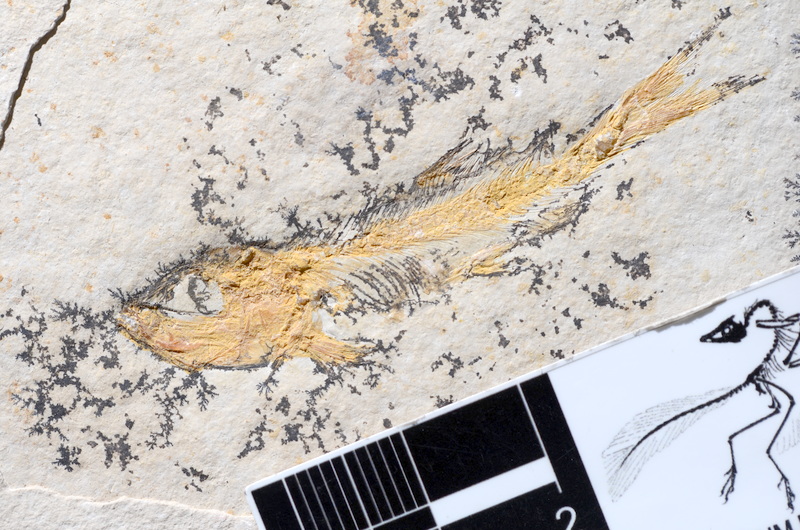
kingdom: Animalia
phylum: Chordata
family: Ascalaboidae
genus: Tharsis
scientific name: Tharsis dubius
